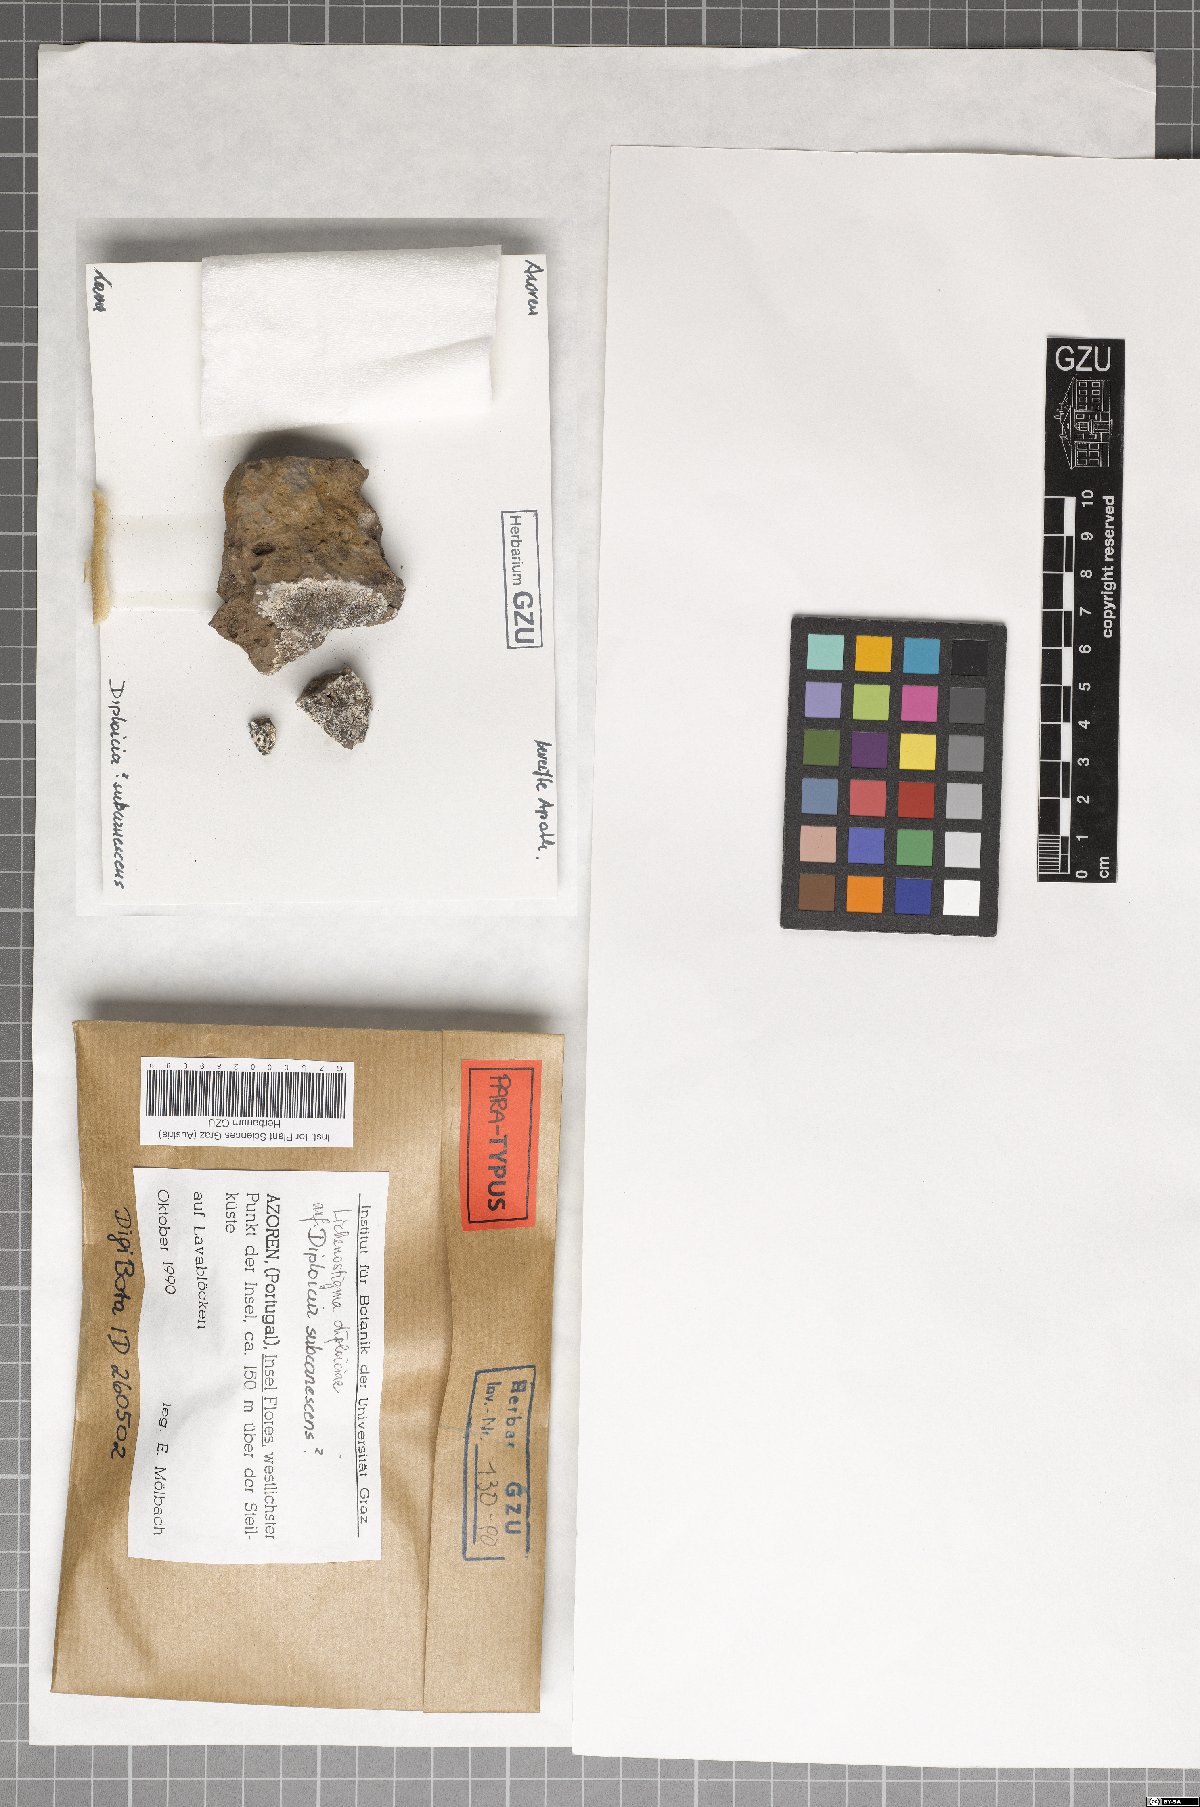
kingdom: Fungi
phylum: Ascomycota
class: Dothideomycetes
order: Lichenotheliales
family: Lichenotheliaceae
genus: Lichenostigma
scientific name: Lichenostigma dipliociae
